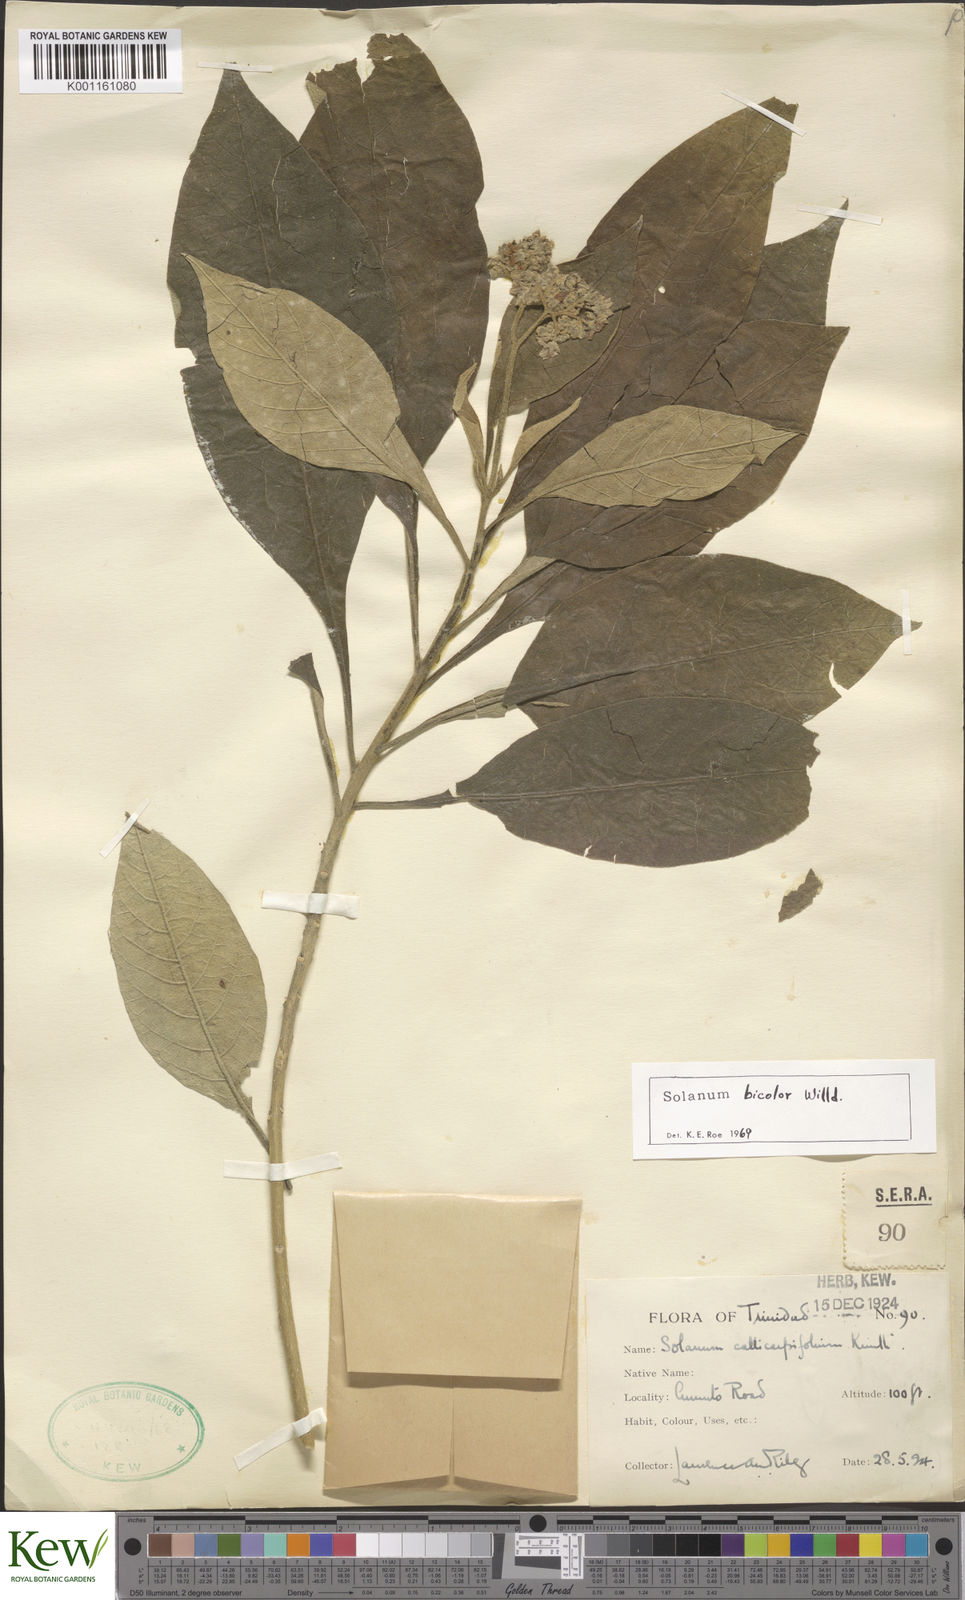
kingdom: Plantae
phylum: Tracheophyta
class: Magnoliopsida
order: Solanales
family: Solanaceae
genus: Solanum
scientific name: Solanum bicolor
